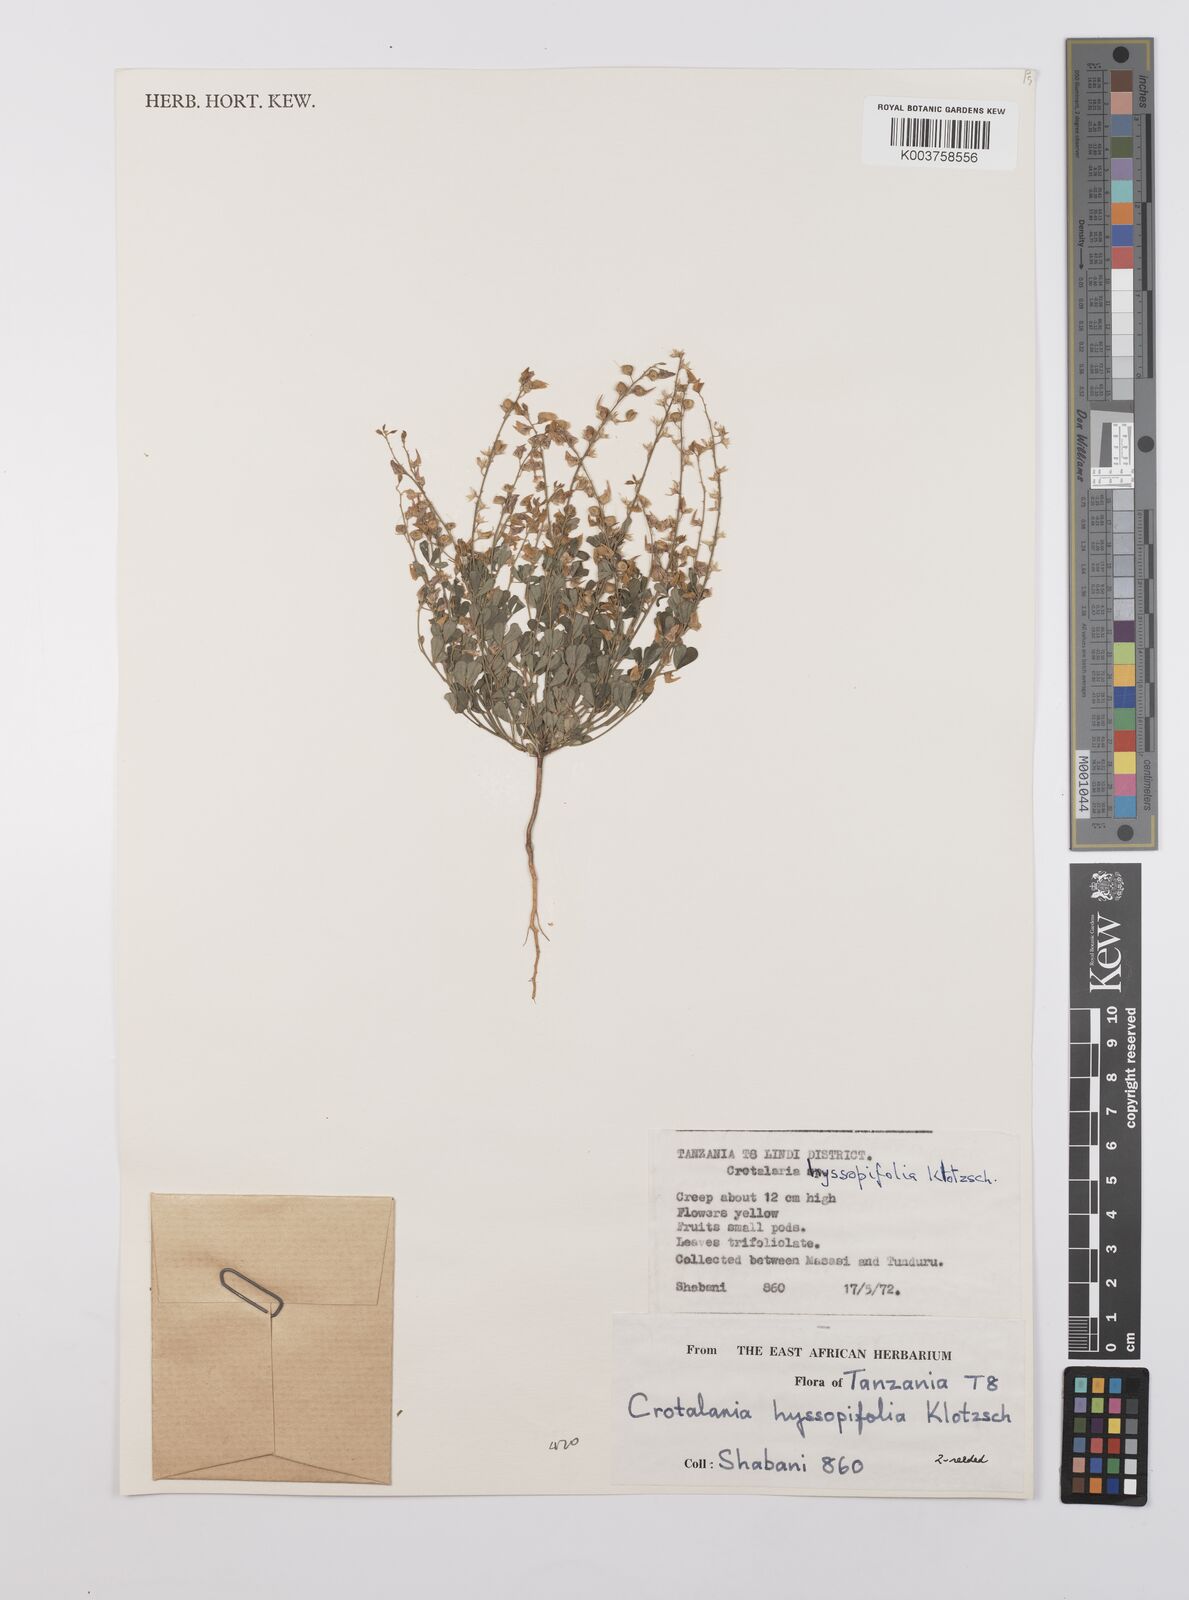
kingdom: Plantae
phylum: Tracheophyta
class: Magnoliopsida
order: Fabales
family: Fabaceae
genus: Crotalaria
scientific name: Crotalaria hyssopifolia
